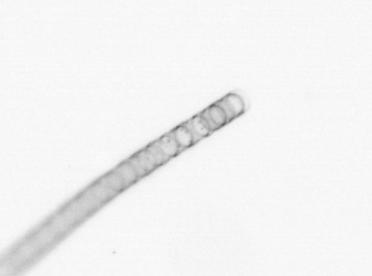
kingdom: Chromista
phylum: Ochrophyta
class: Bacillariophyceae
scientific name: Bacillariophyceae
